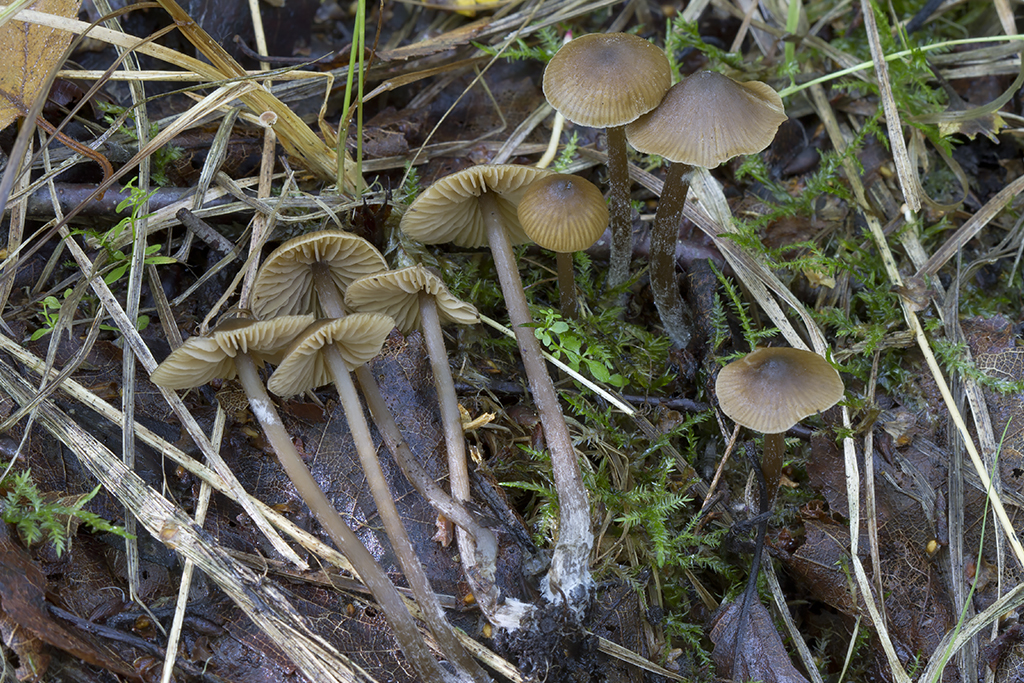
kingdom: Fungi
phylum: Basidiomycota
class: Agaricomycetes
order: Agaricales
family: Entolomataceae
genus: Entoloma
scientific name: Entoloma
